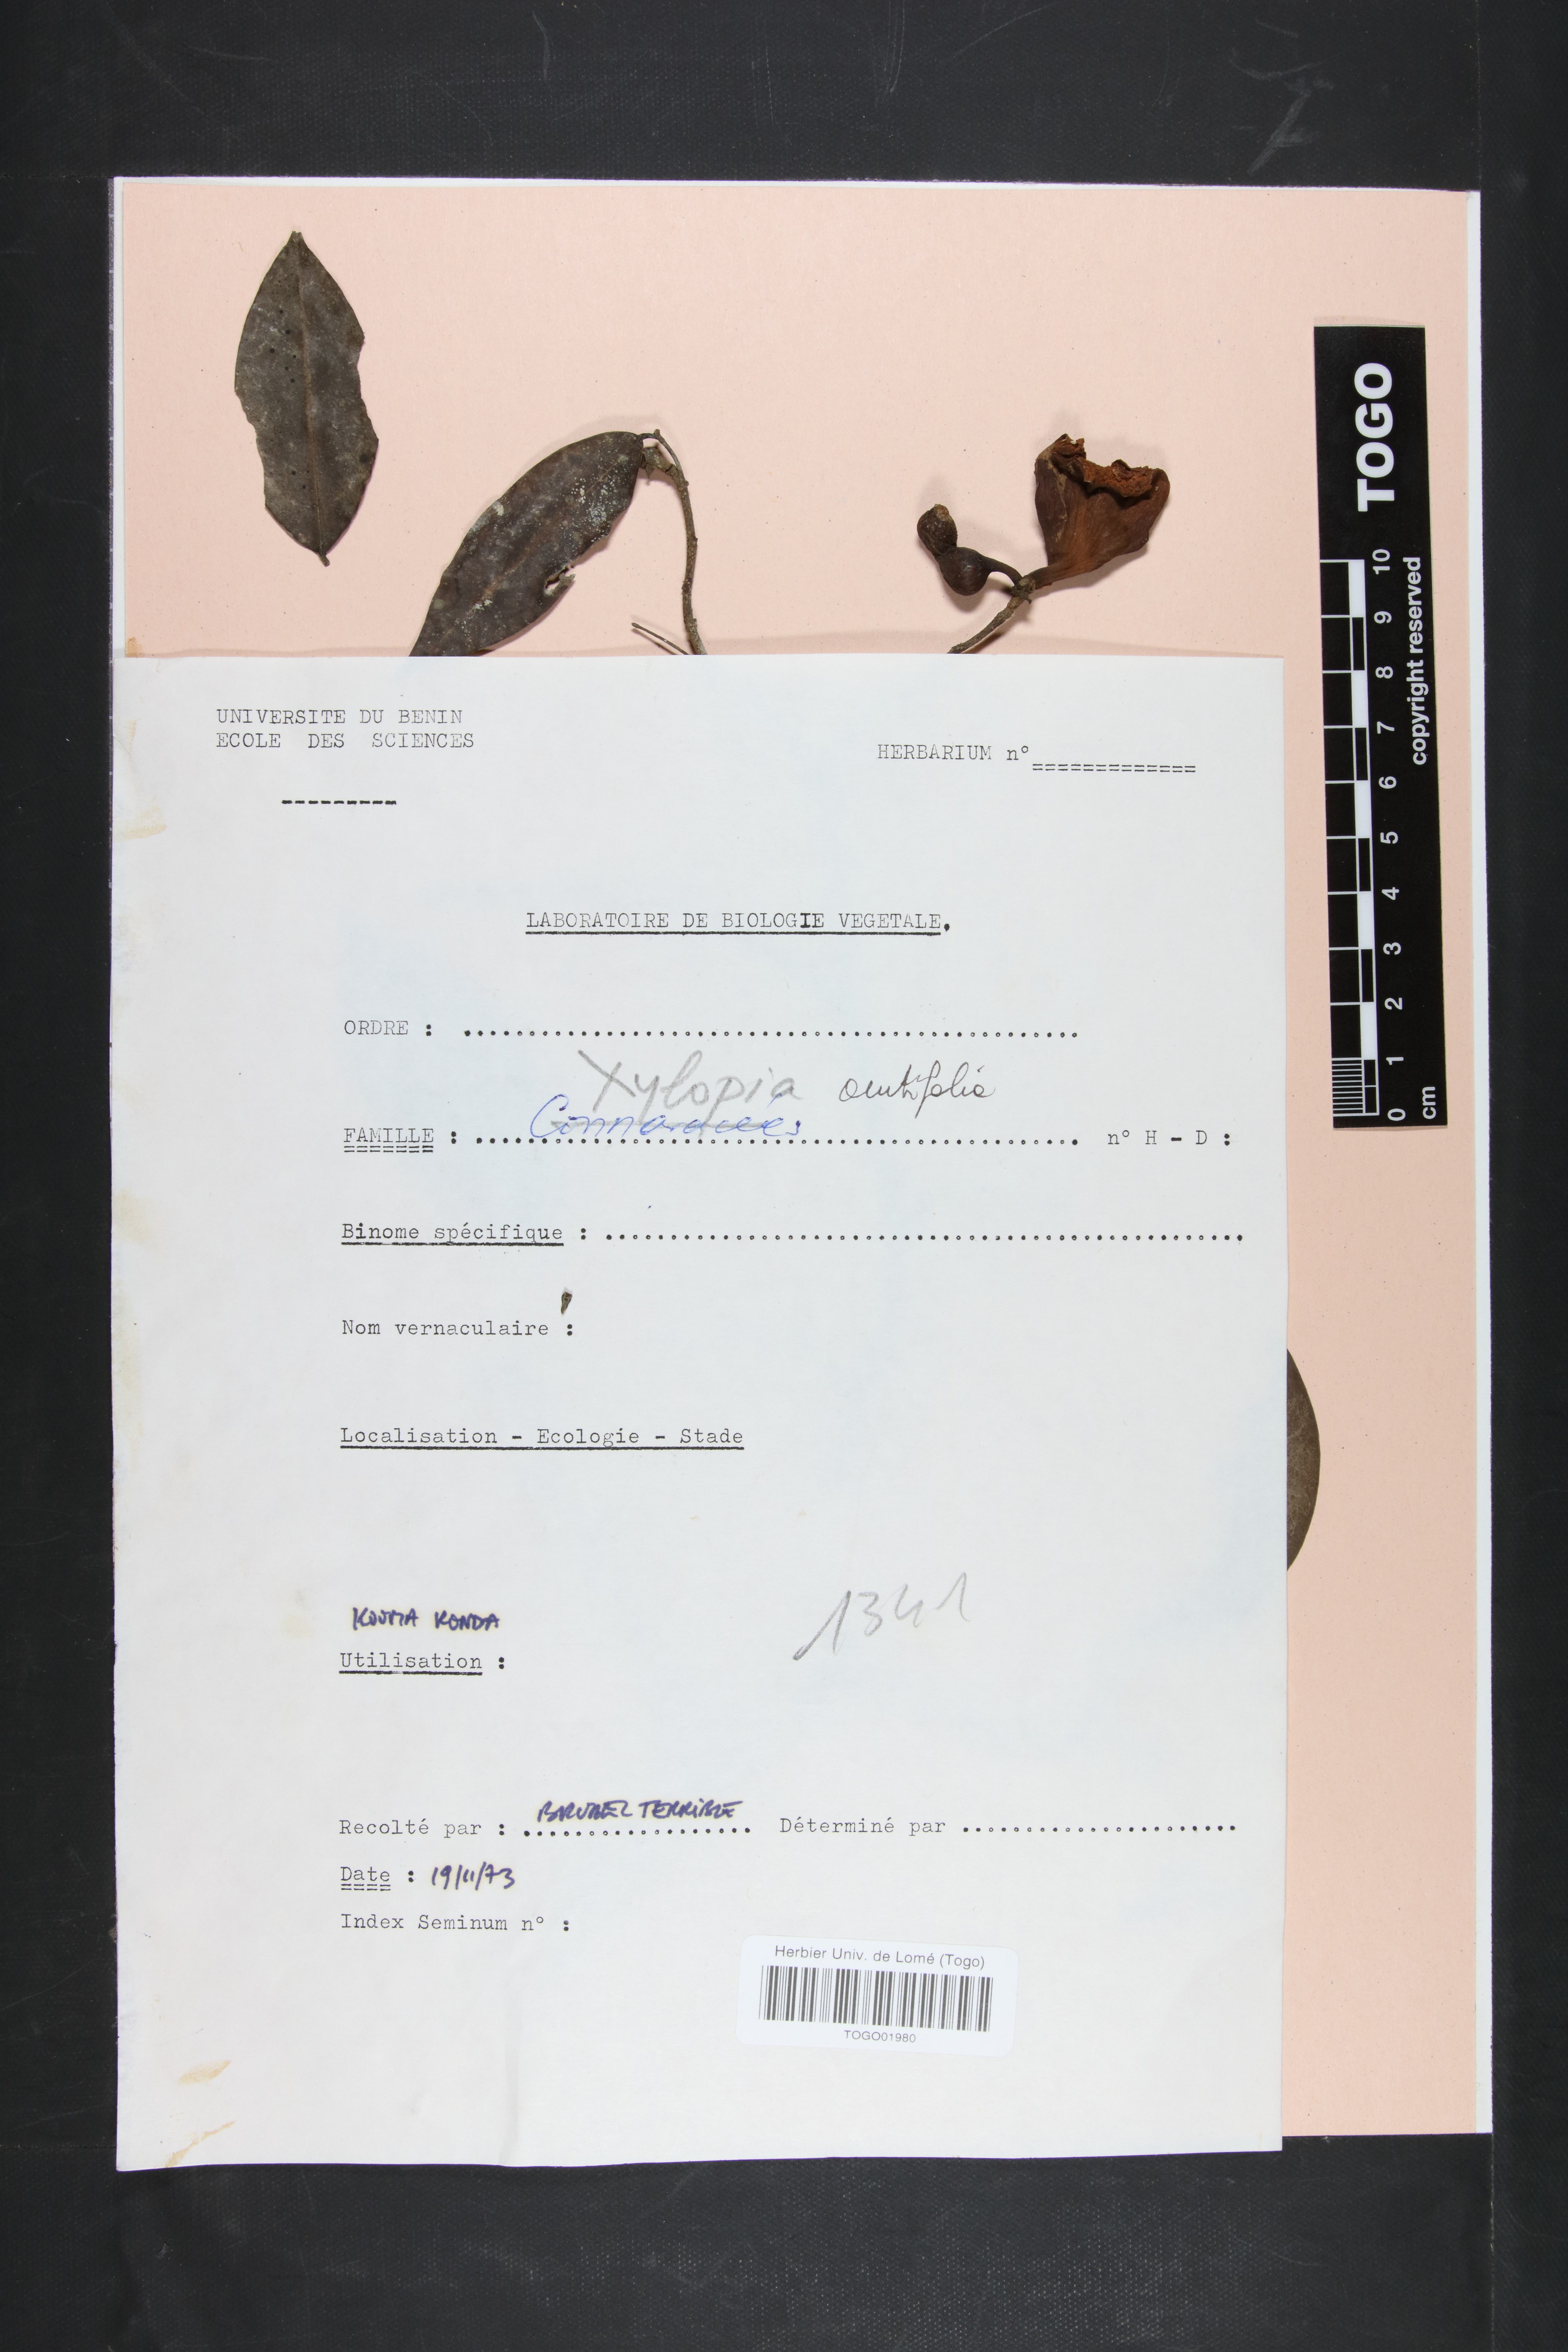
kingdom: Plantae
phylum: Tracheophyta
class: Magnoliopsida
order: Magnoliales
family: Annonaceae
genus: Xylopia
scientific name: Xylopia acutiflora
